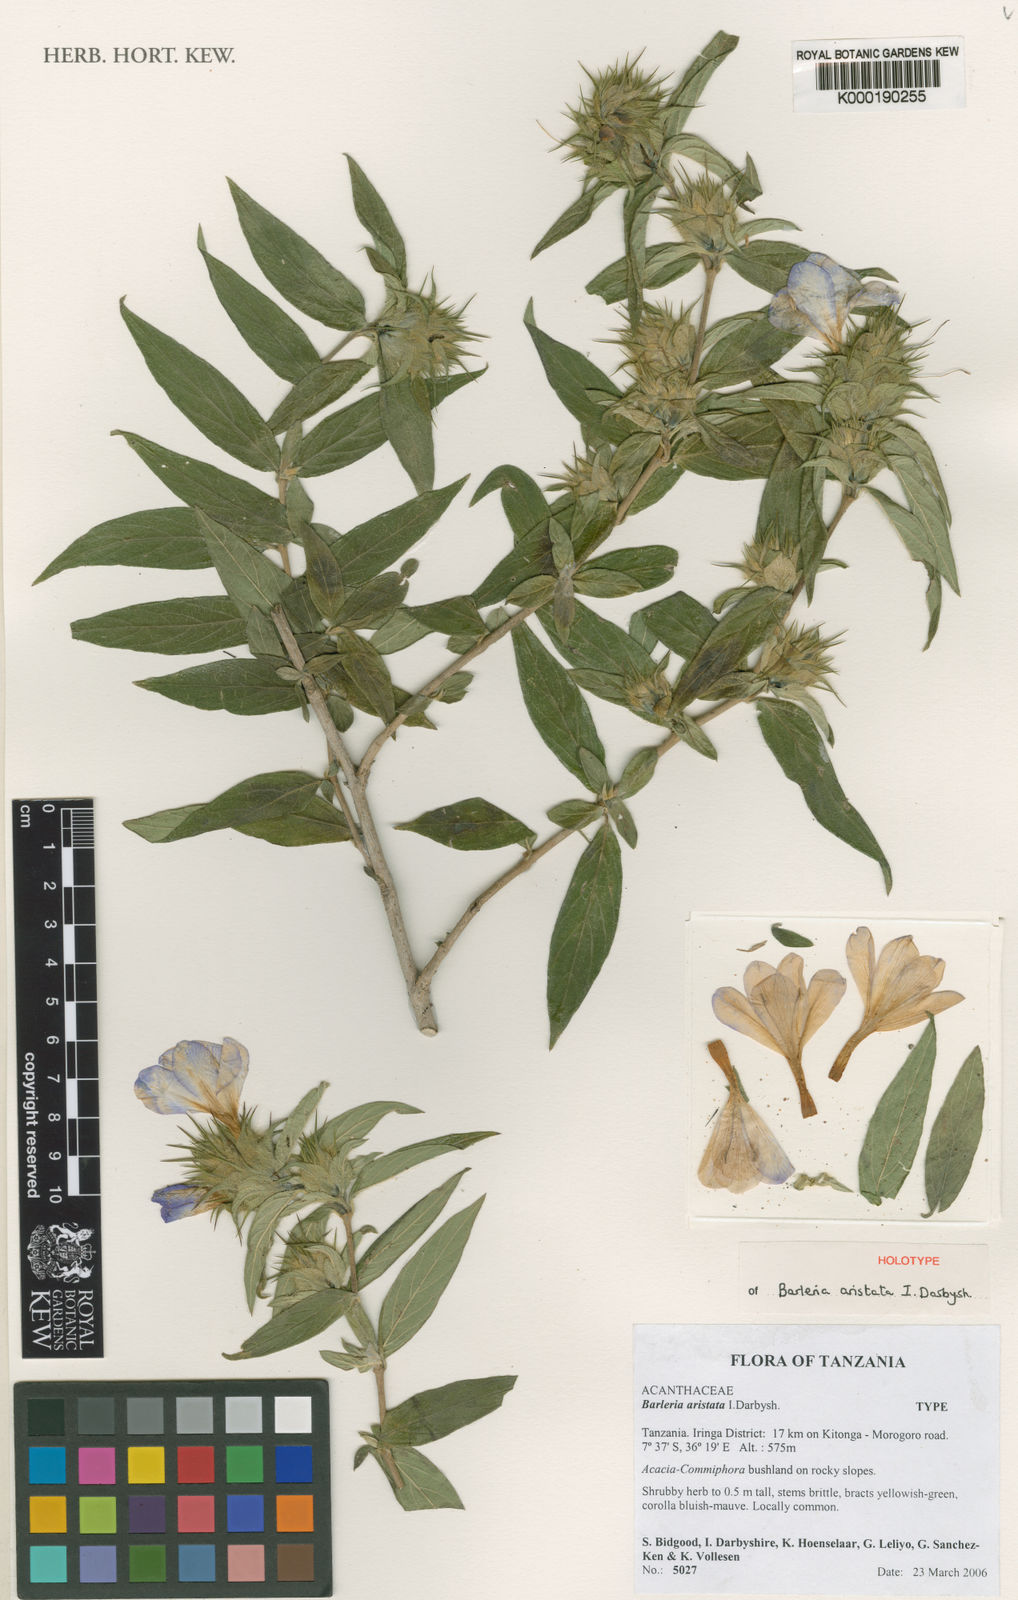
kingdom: Plantae
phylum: Tracheophyta
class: Magnoliopsida
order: Lamiales
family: Acanthaceae
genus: Barleria
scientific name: Barleria aristata
